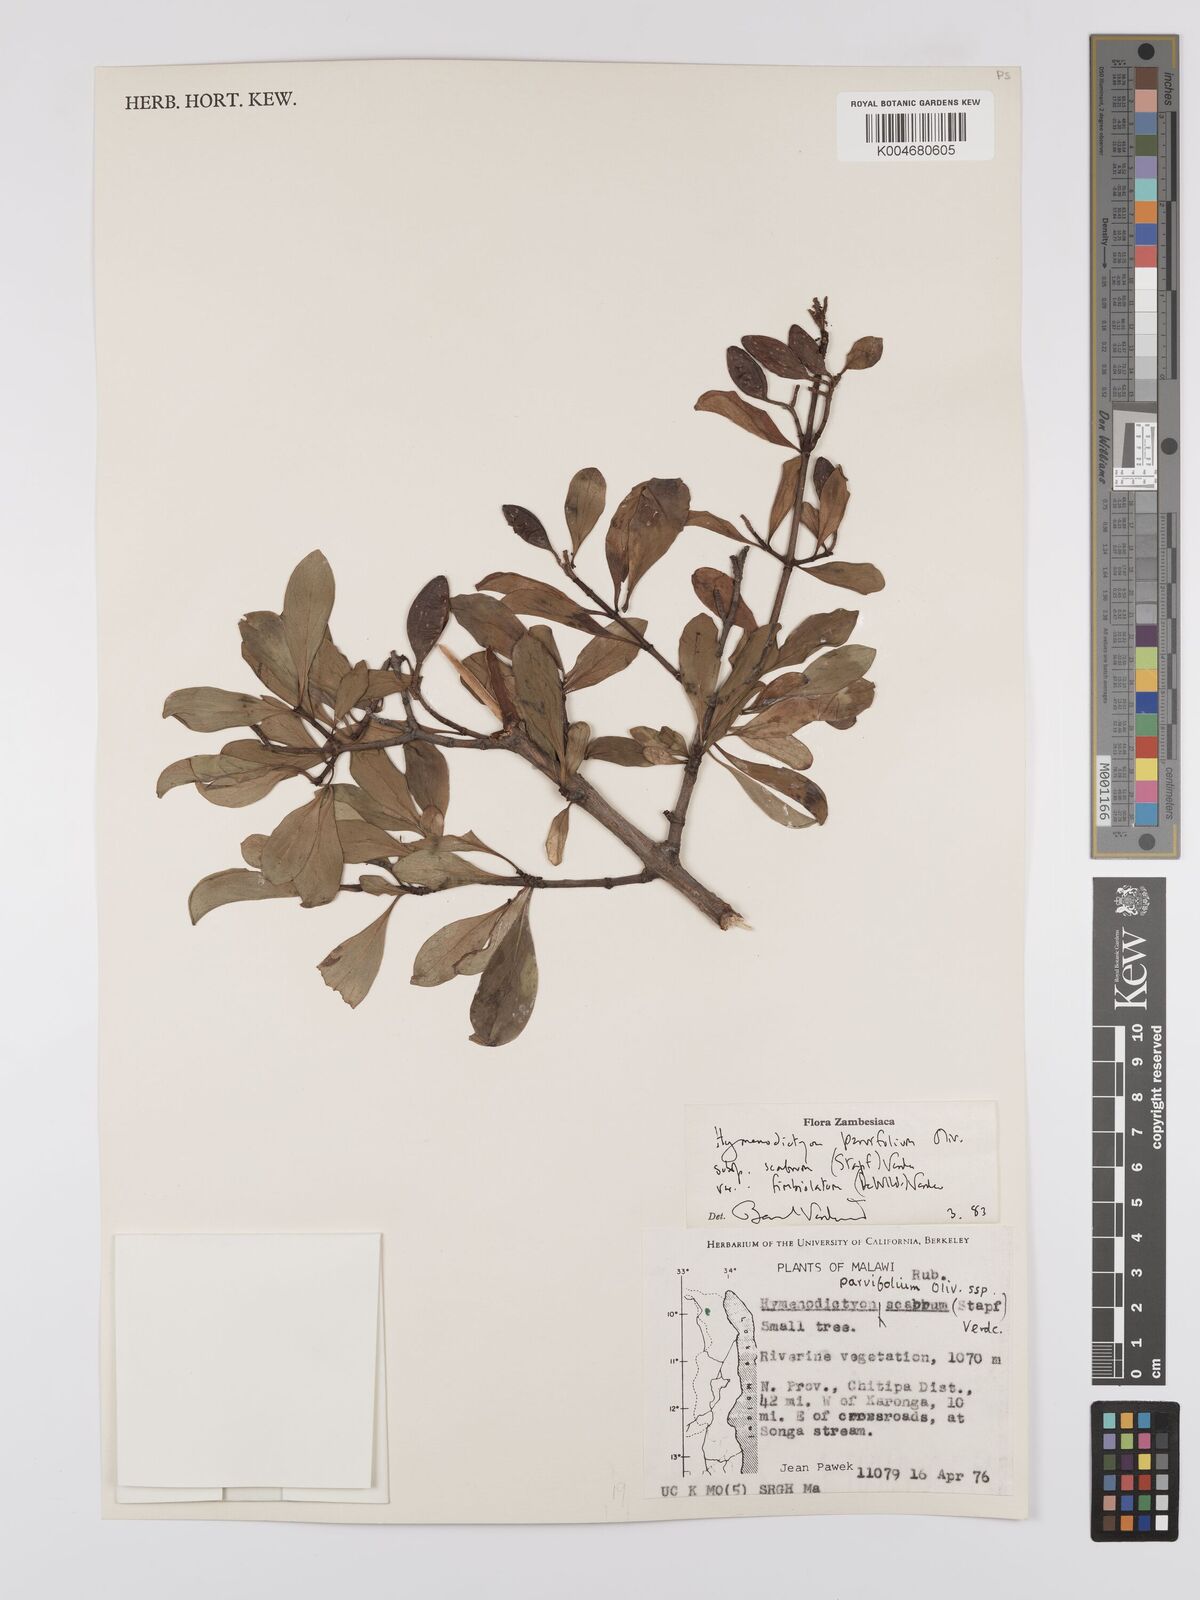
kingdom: Plantae
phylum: Tracheophyta
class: Magnoliopsida
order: Gentianales
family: Rubiaceae
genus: Hymenodictyon
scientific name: Hymenodictyon scabrum
